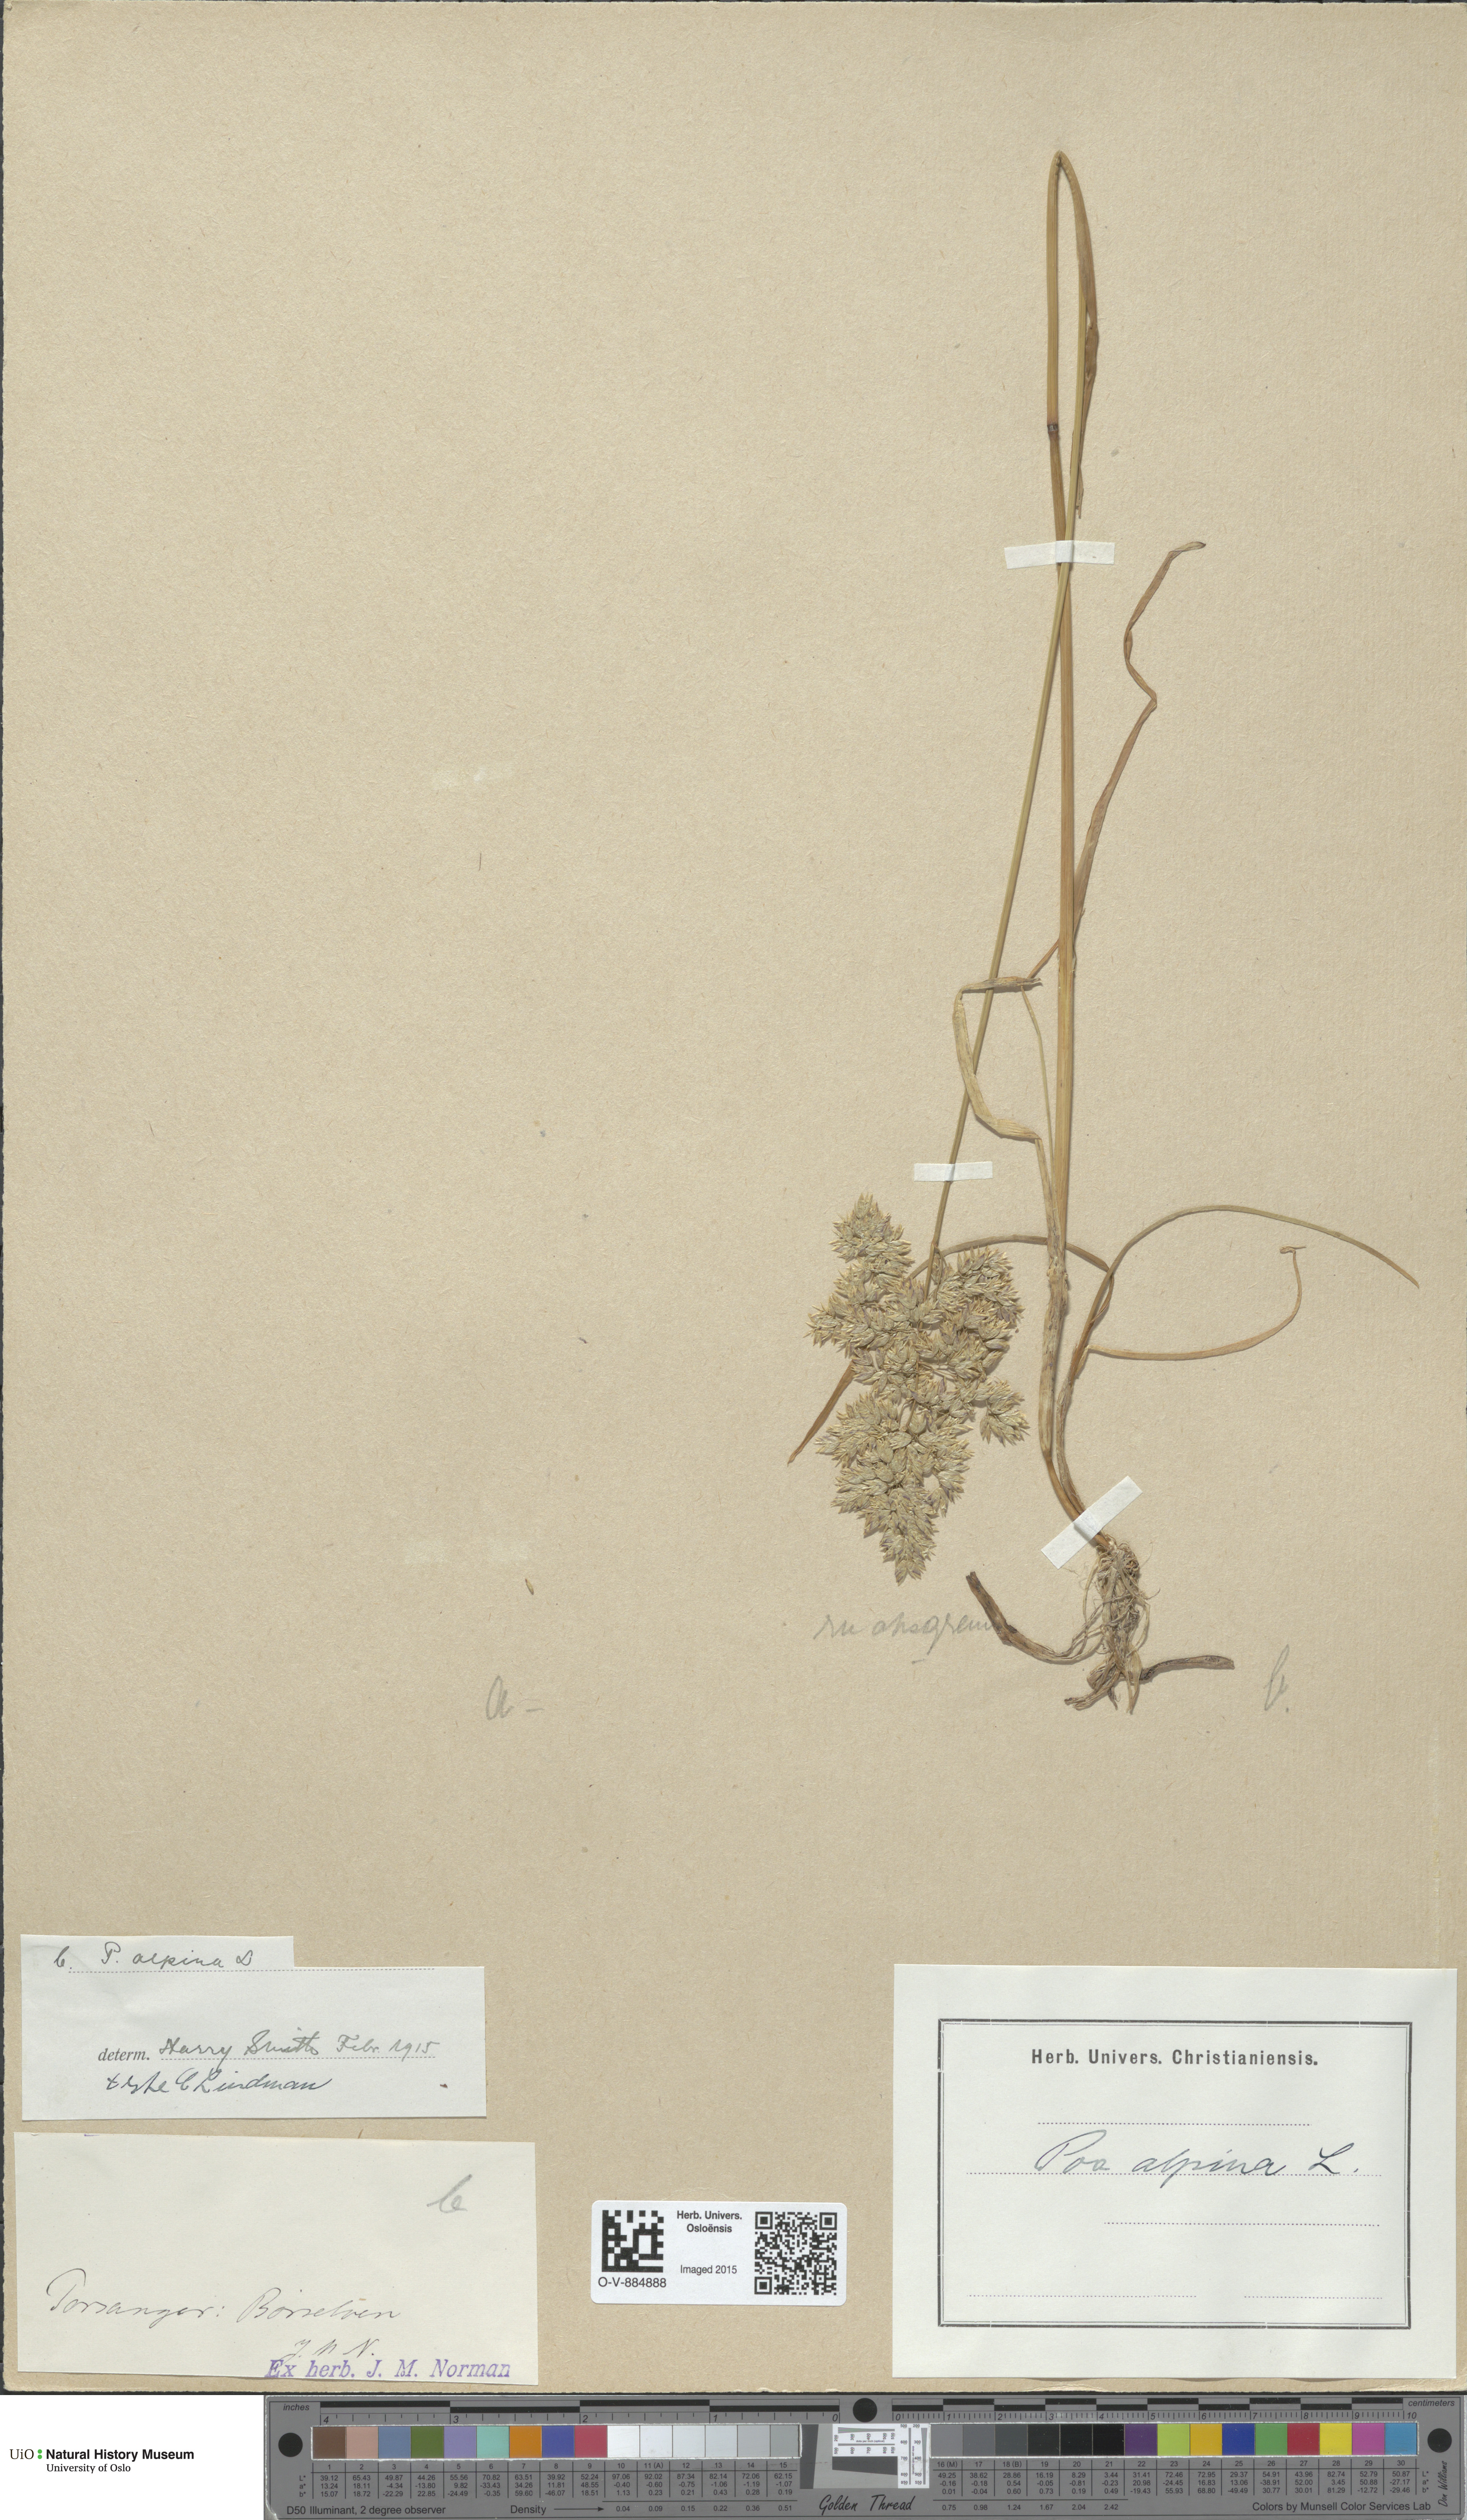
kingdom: Plantae
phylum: Tracheophyta
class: Liliopsida
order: Poales
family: Poaceae
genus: Poa
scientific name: Poa alpina
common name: Alpine bluegrass
